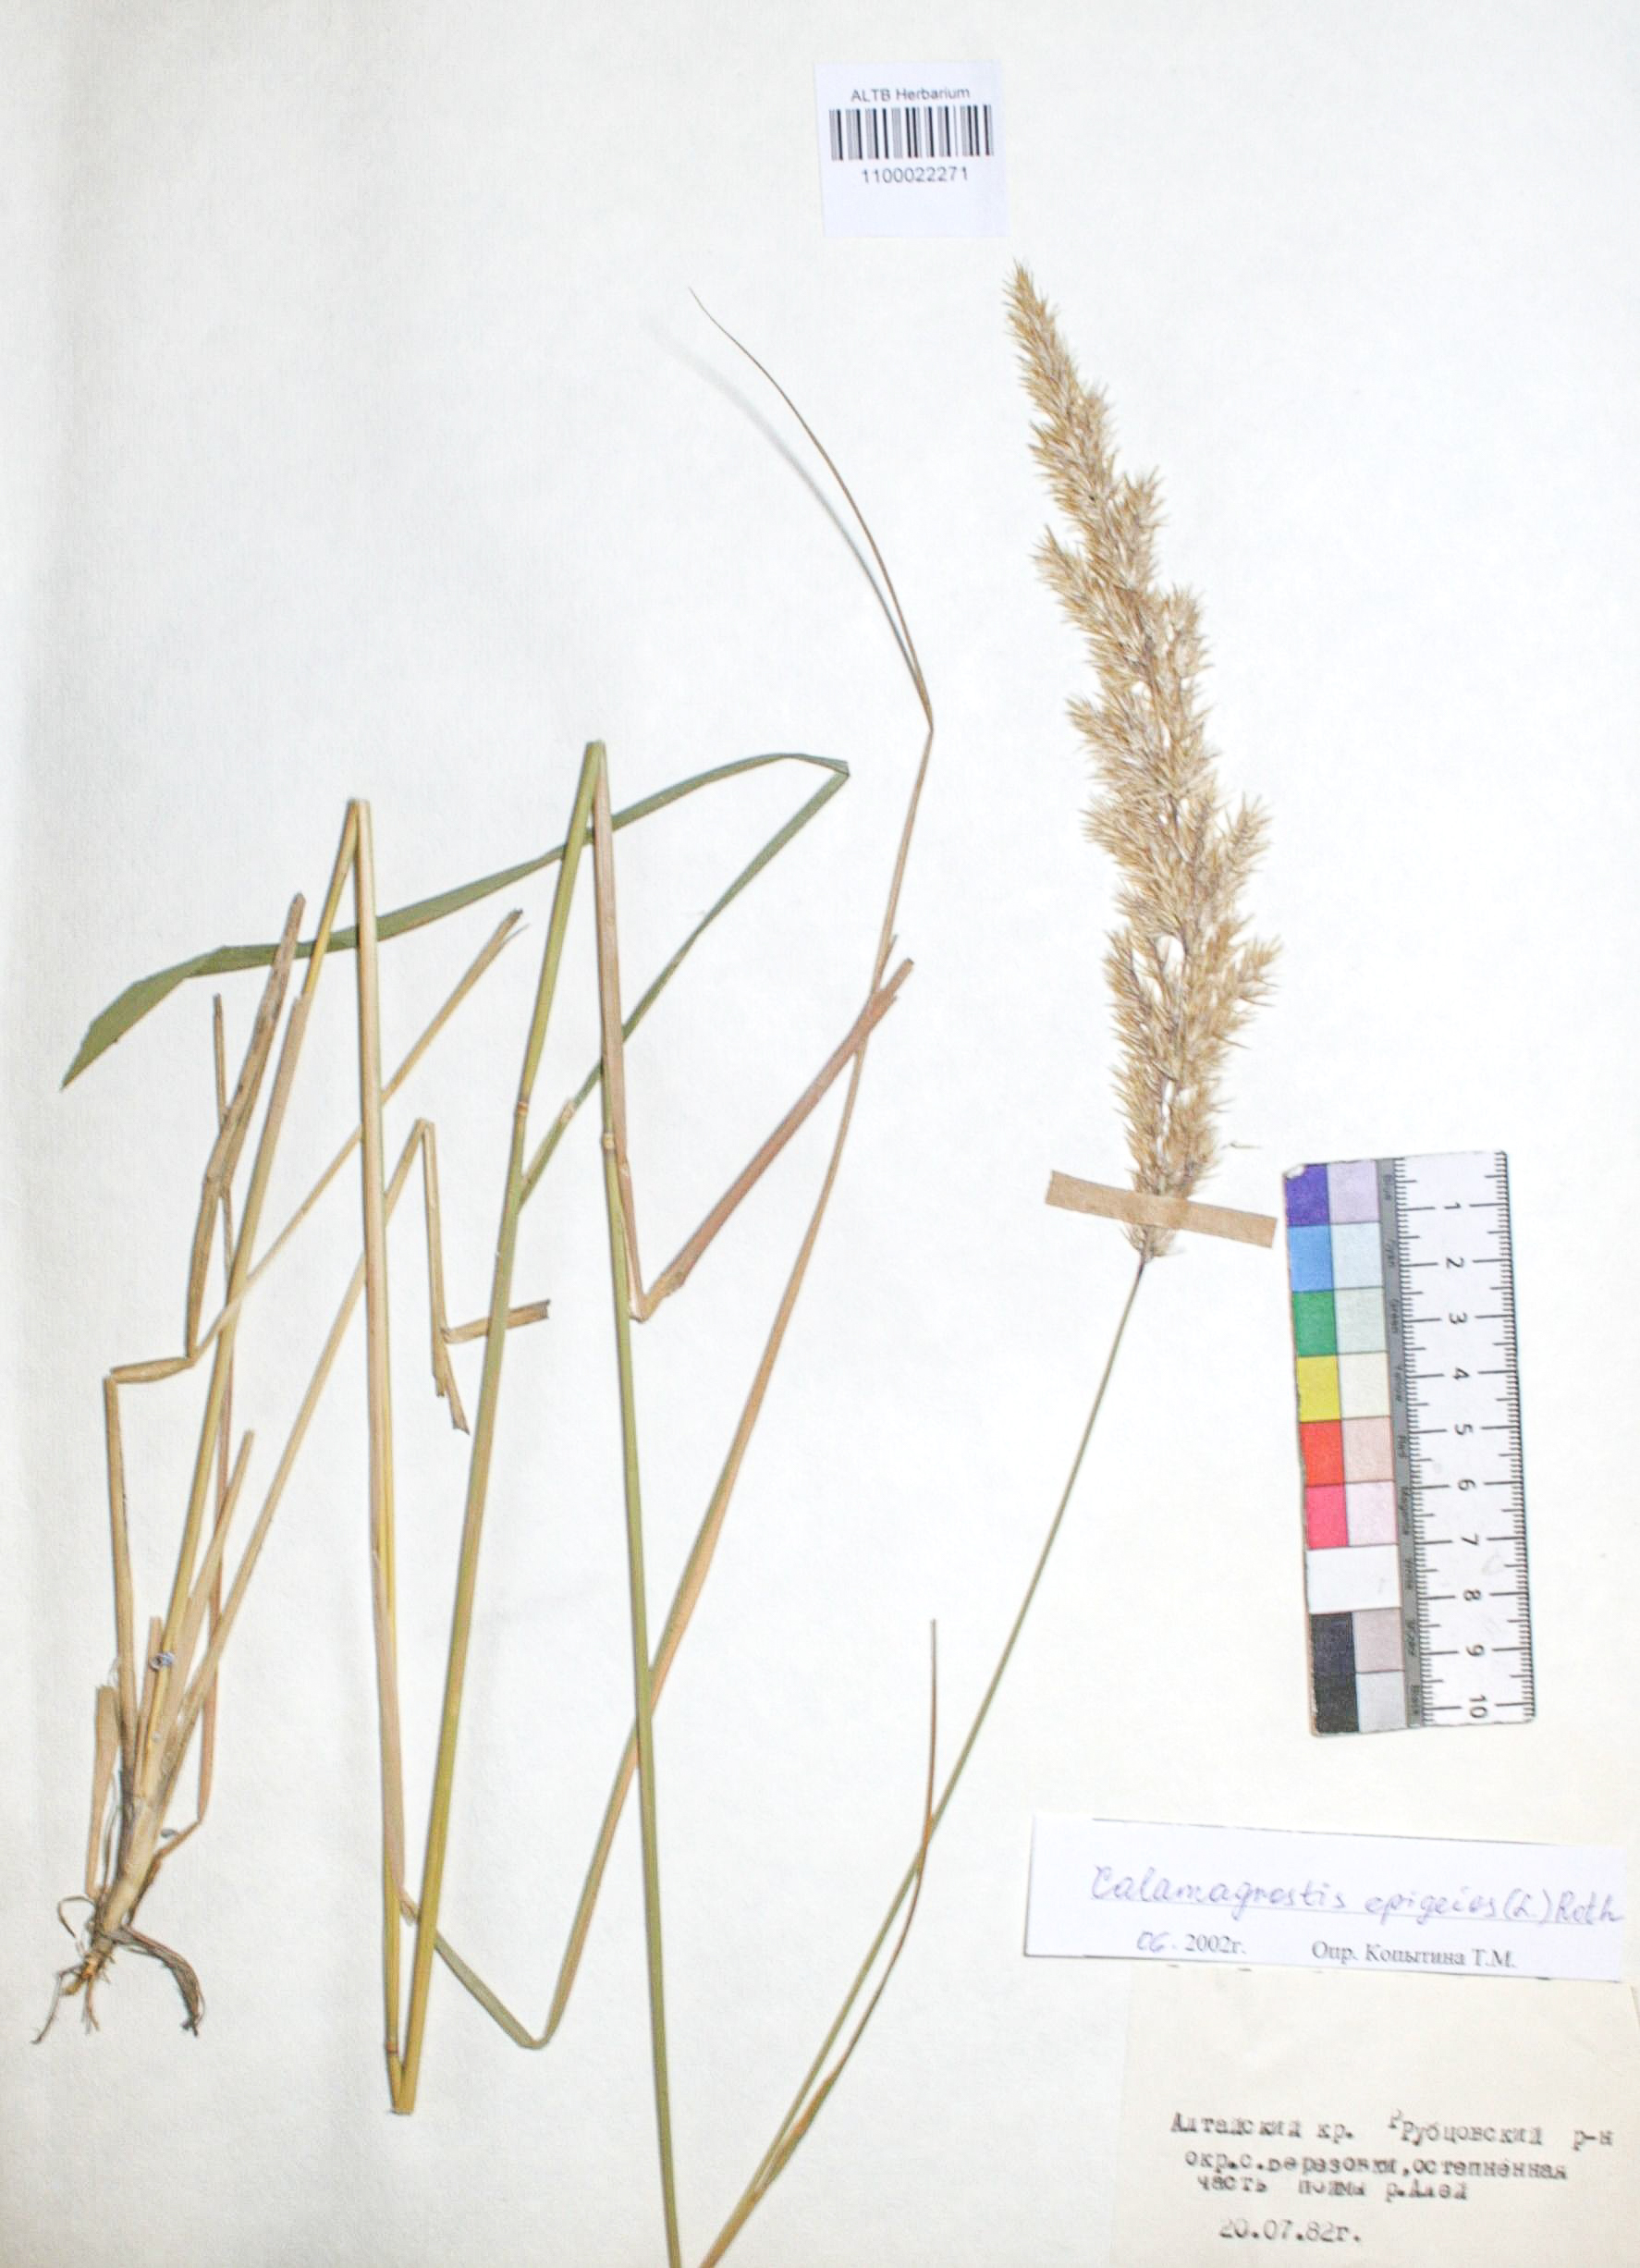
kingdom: Plantae
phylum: Tracheophyta
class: Liliopsida
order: Poales
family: Poaceae
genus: Calamagrostis
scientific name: Calamagrostis epigejos x pseudophragmites
